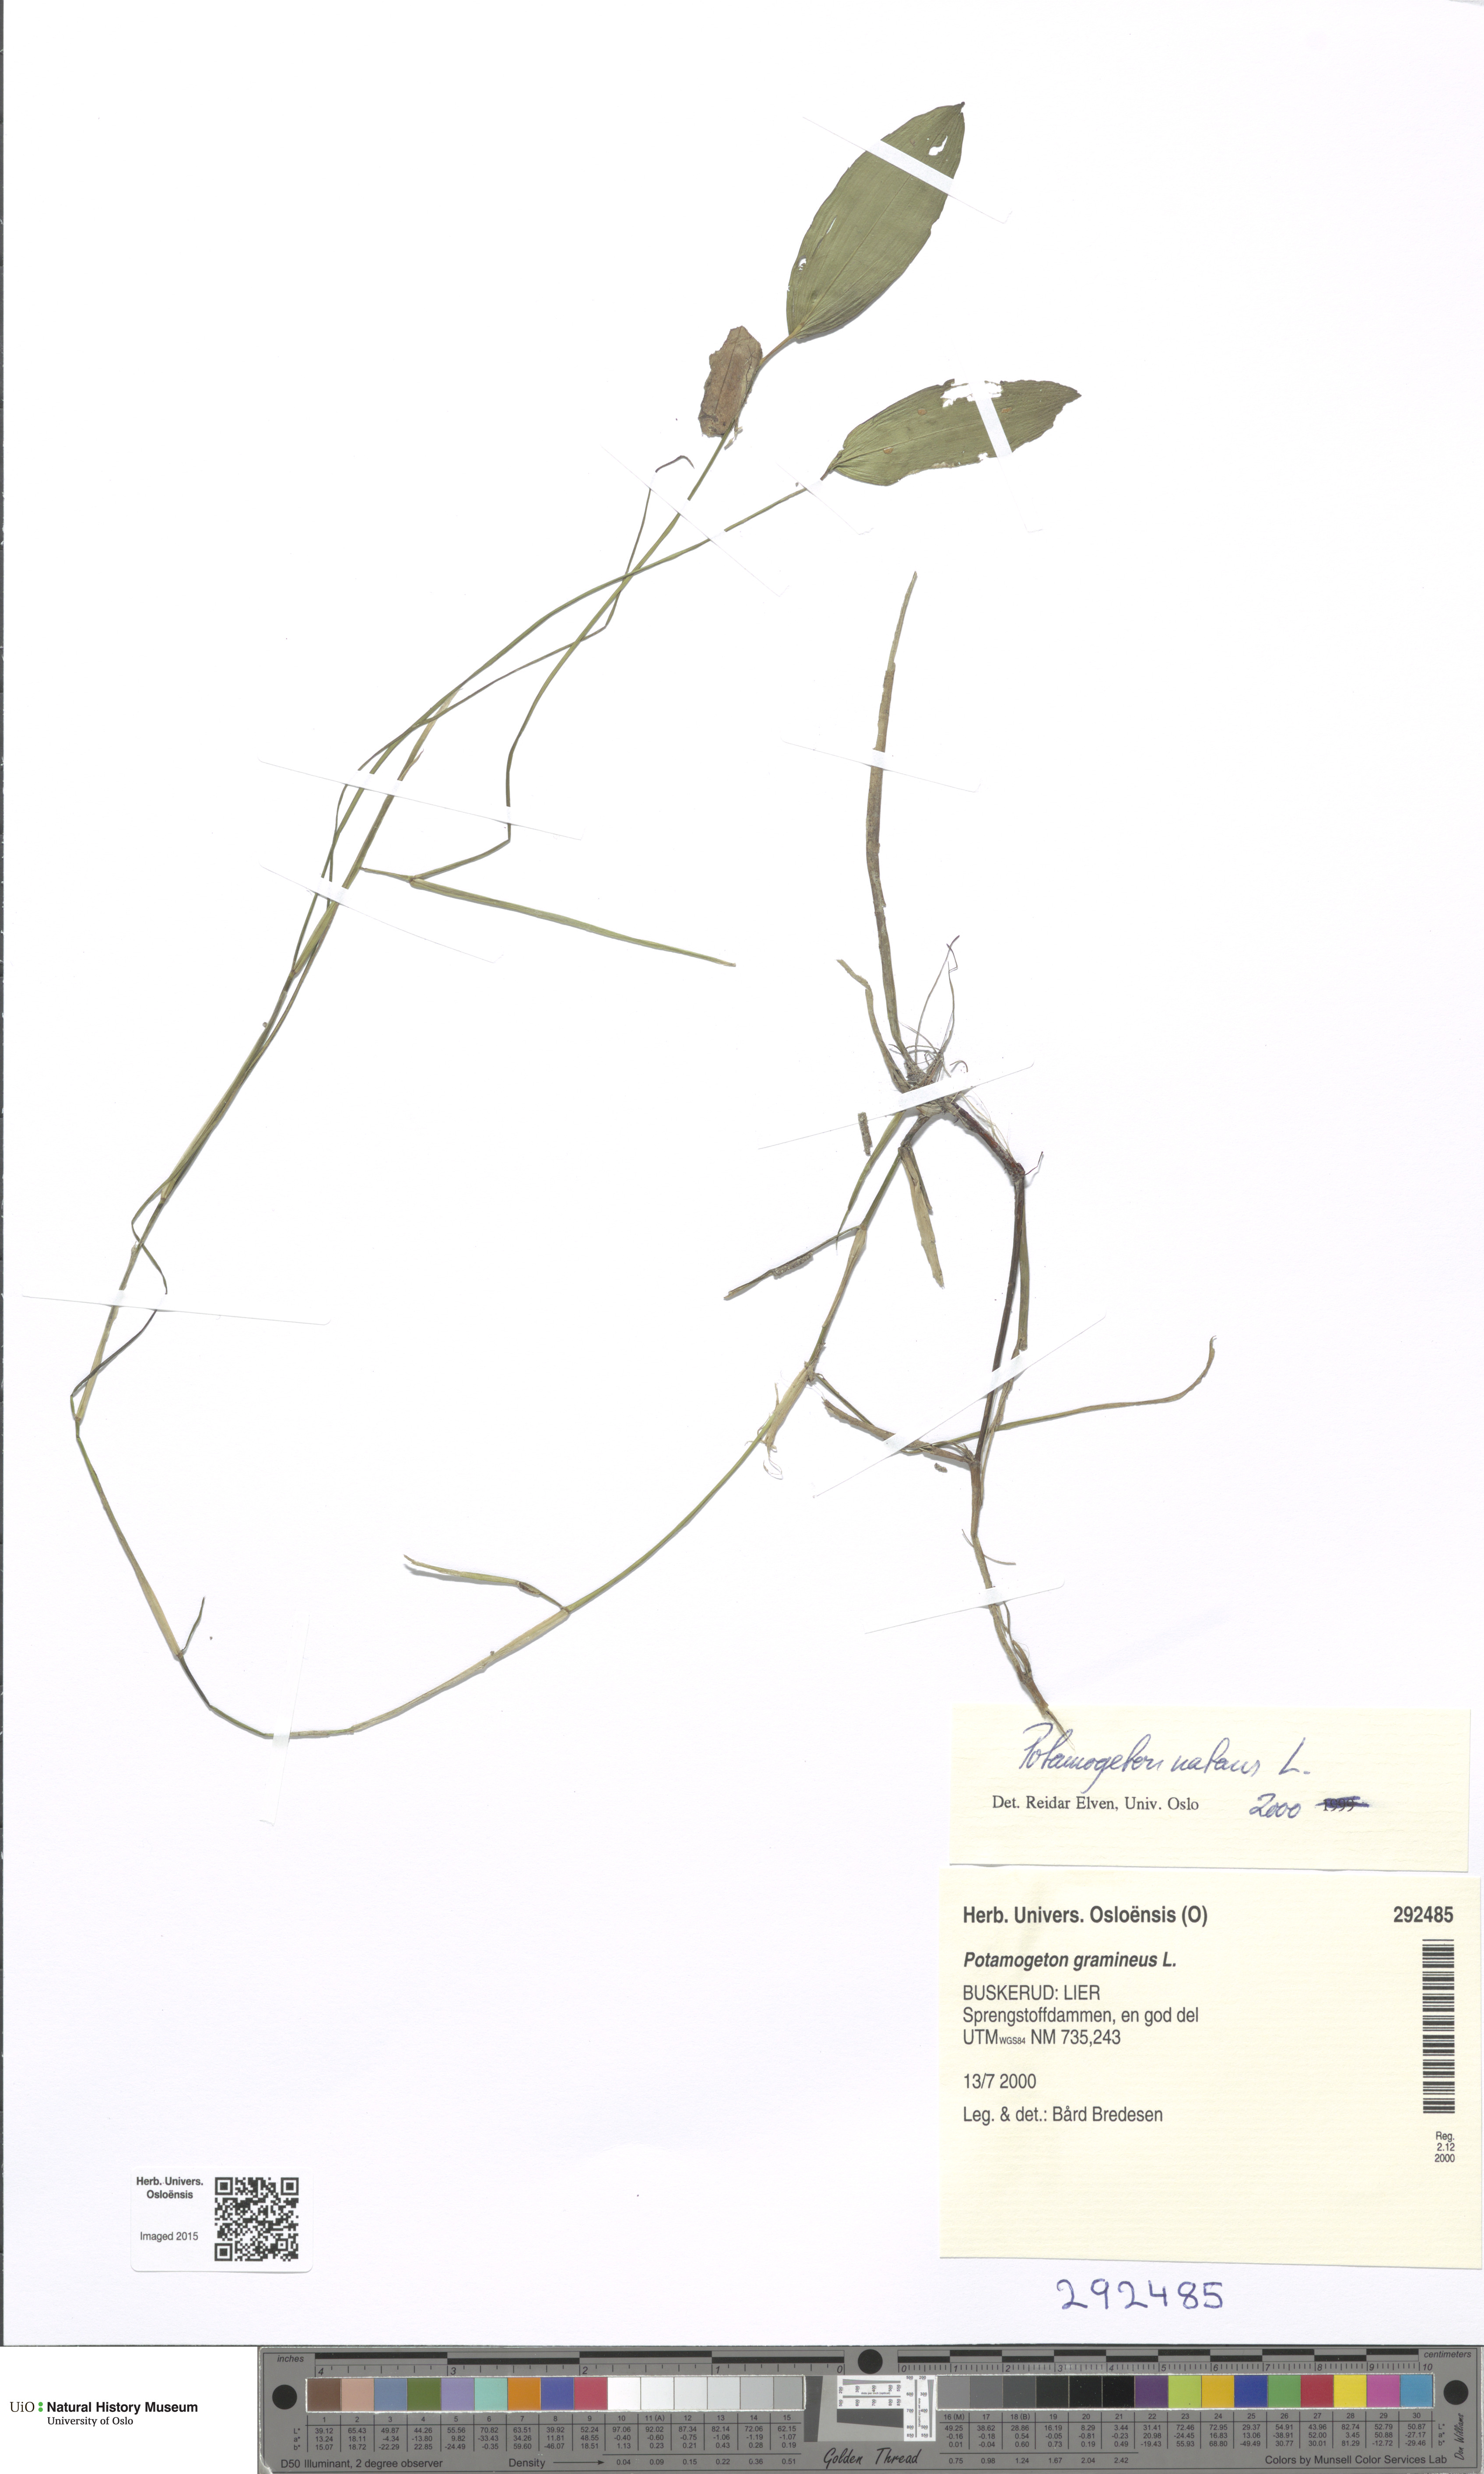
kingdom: Plantae
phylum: Tracheophyta
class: Liliopsida
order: Alismatales
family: Potamogetonaceae
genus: Potamogeton
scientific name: Potamogeton natans
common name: Broad-leaved pondweed
